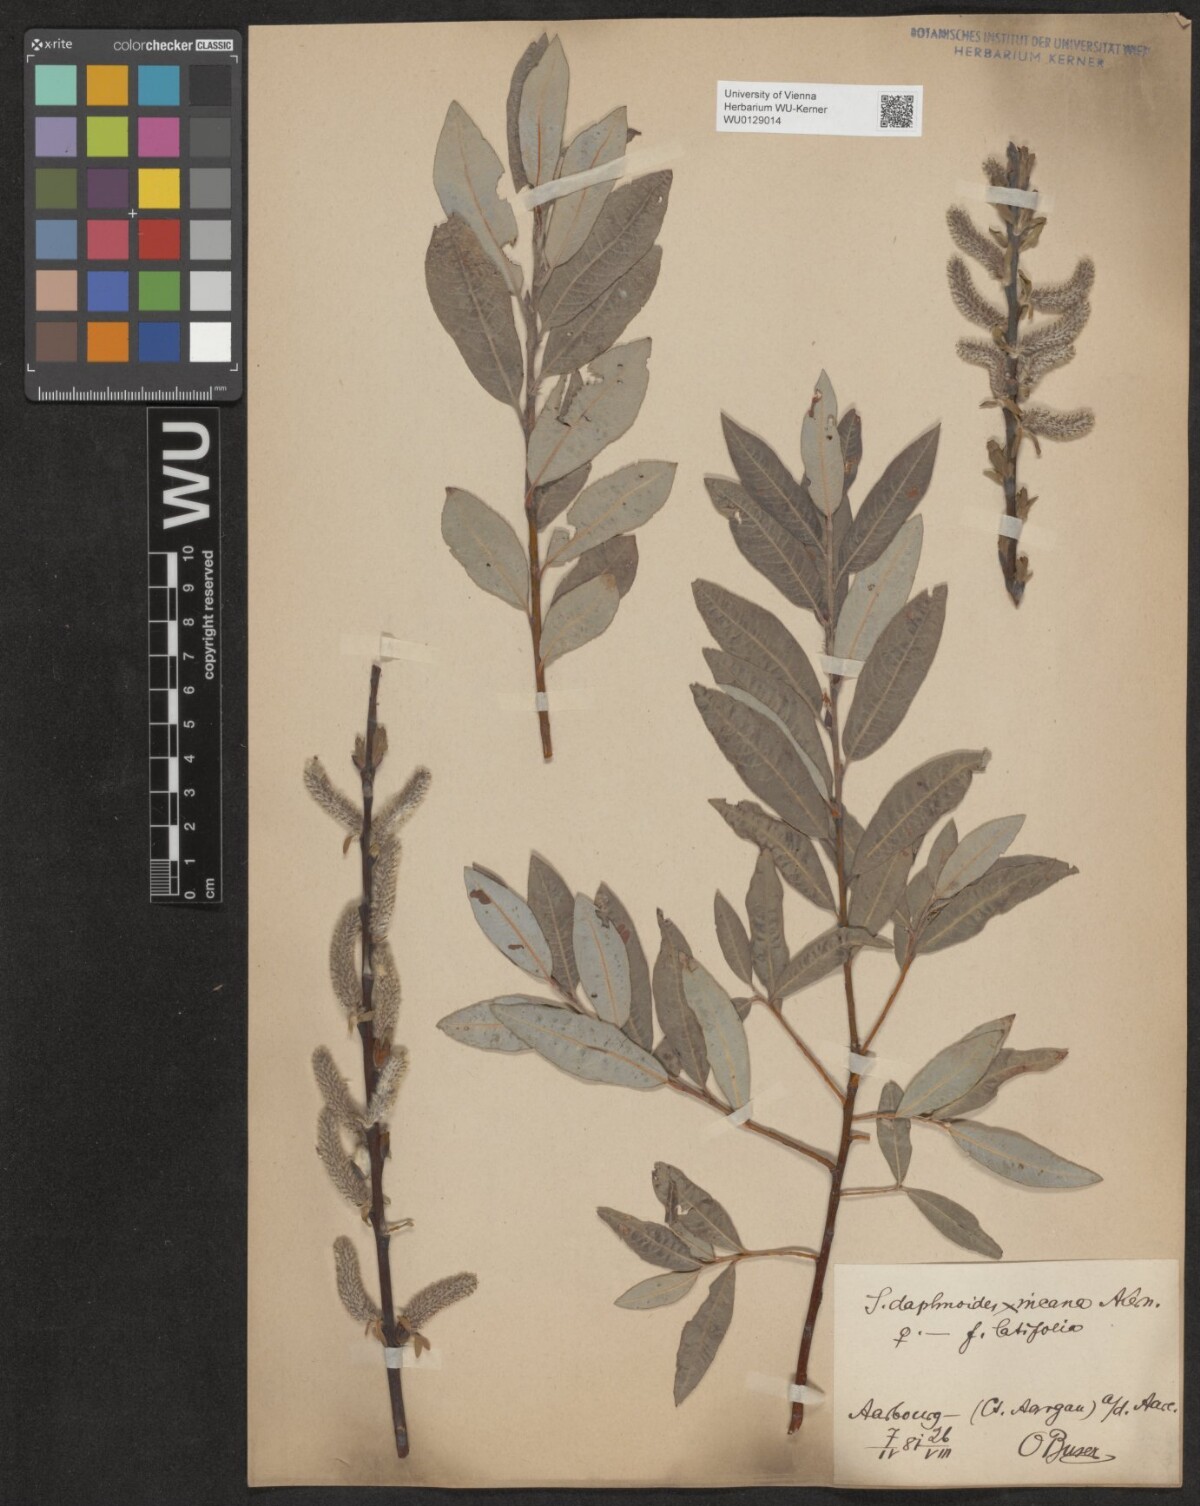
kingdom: Plantae
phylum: Tracheophyta
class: Magnoliopsida
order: Malpighiales
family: Salicaceae
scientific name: Salicaceae
